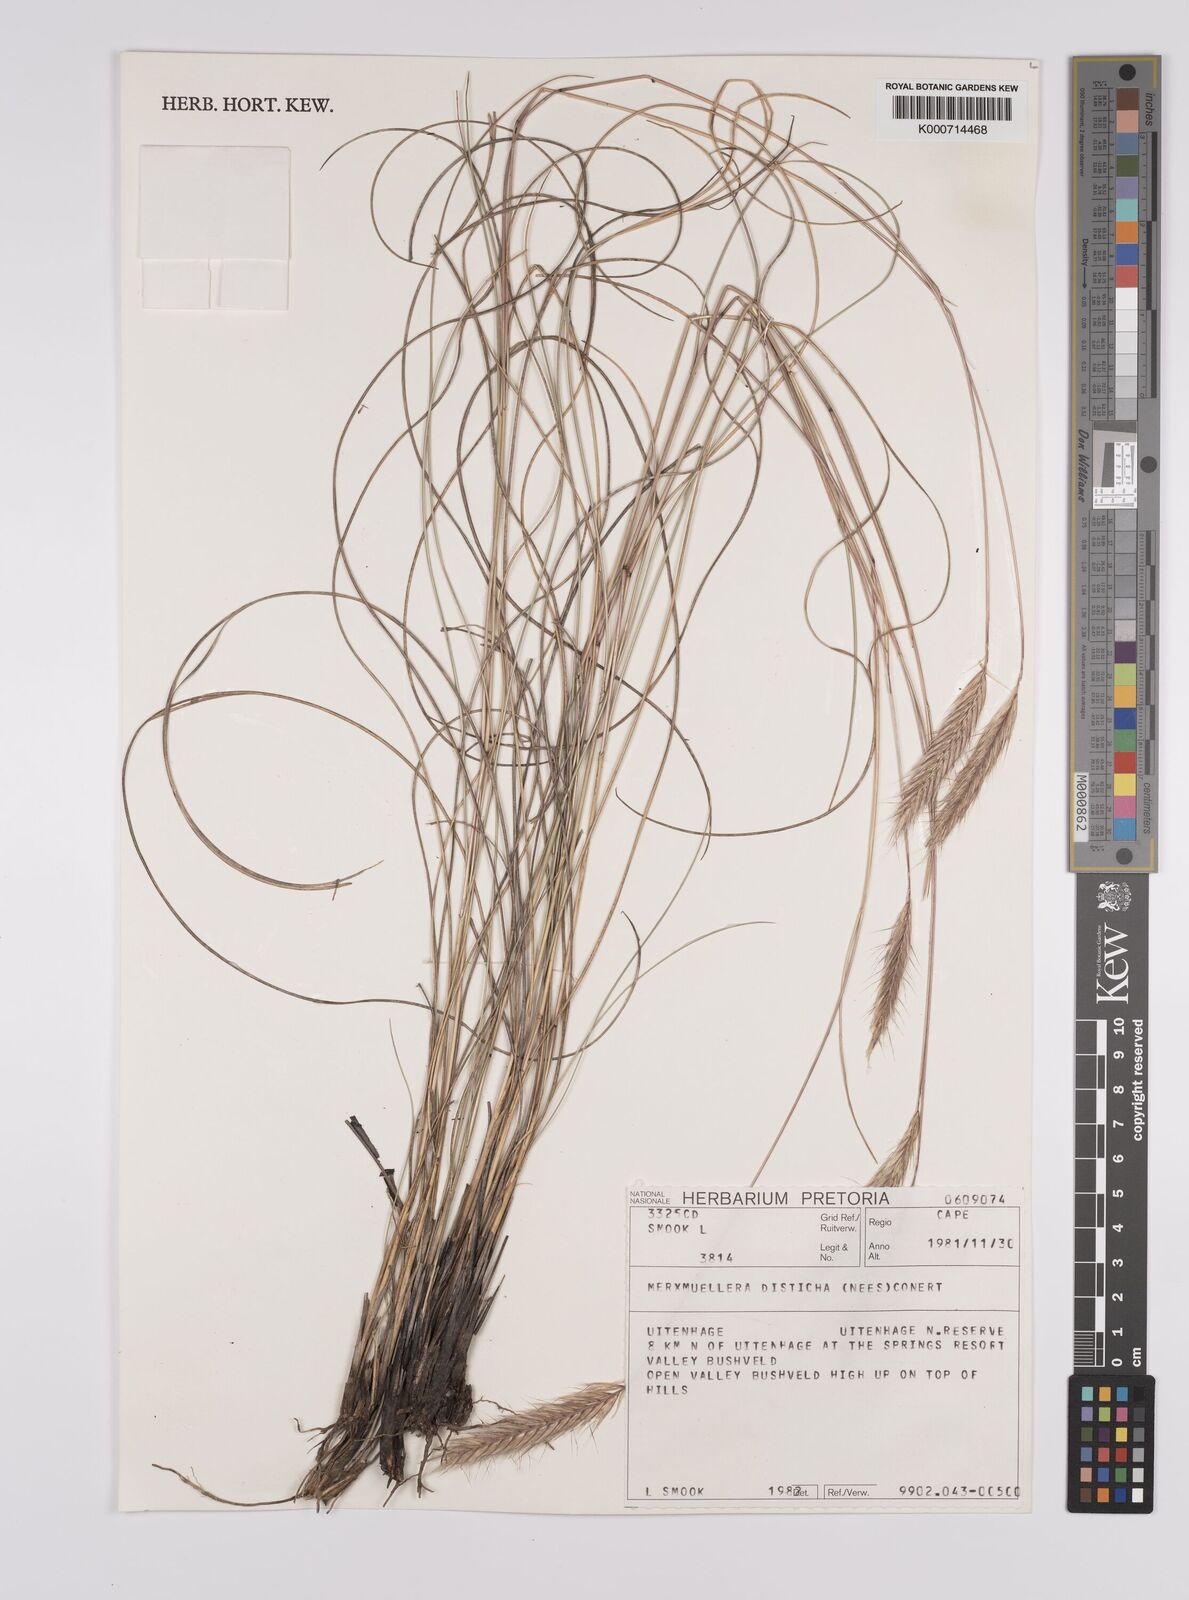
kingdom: Plantae
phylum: Tracheophyta
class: Liliopsida
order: Poales
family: Poaceae
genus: Tenaxia
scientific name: Tenaxia disticha
